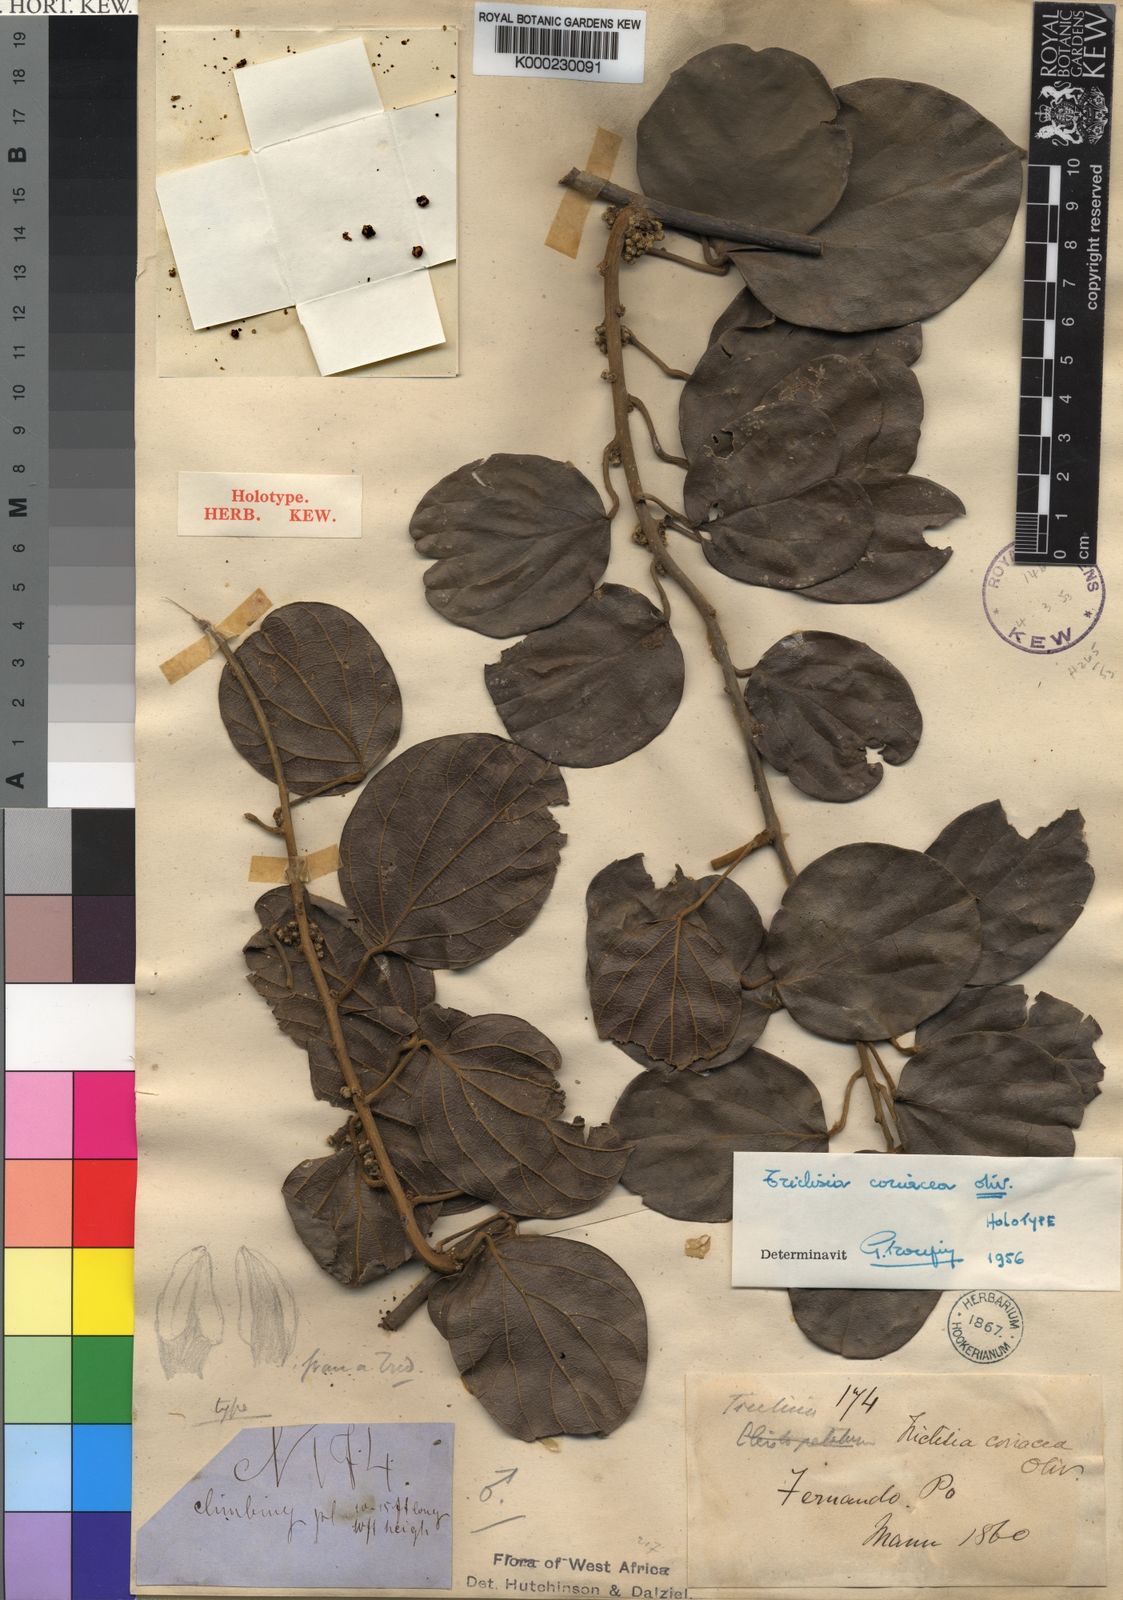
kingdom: Plantae
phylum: Tracheophyta
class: Magnoliopsida
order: Ranunculales
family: Menispermaceae
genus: Triclisia
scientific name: Triclisia coriacea
